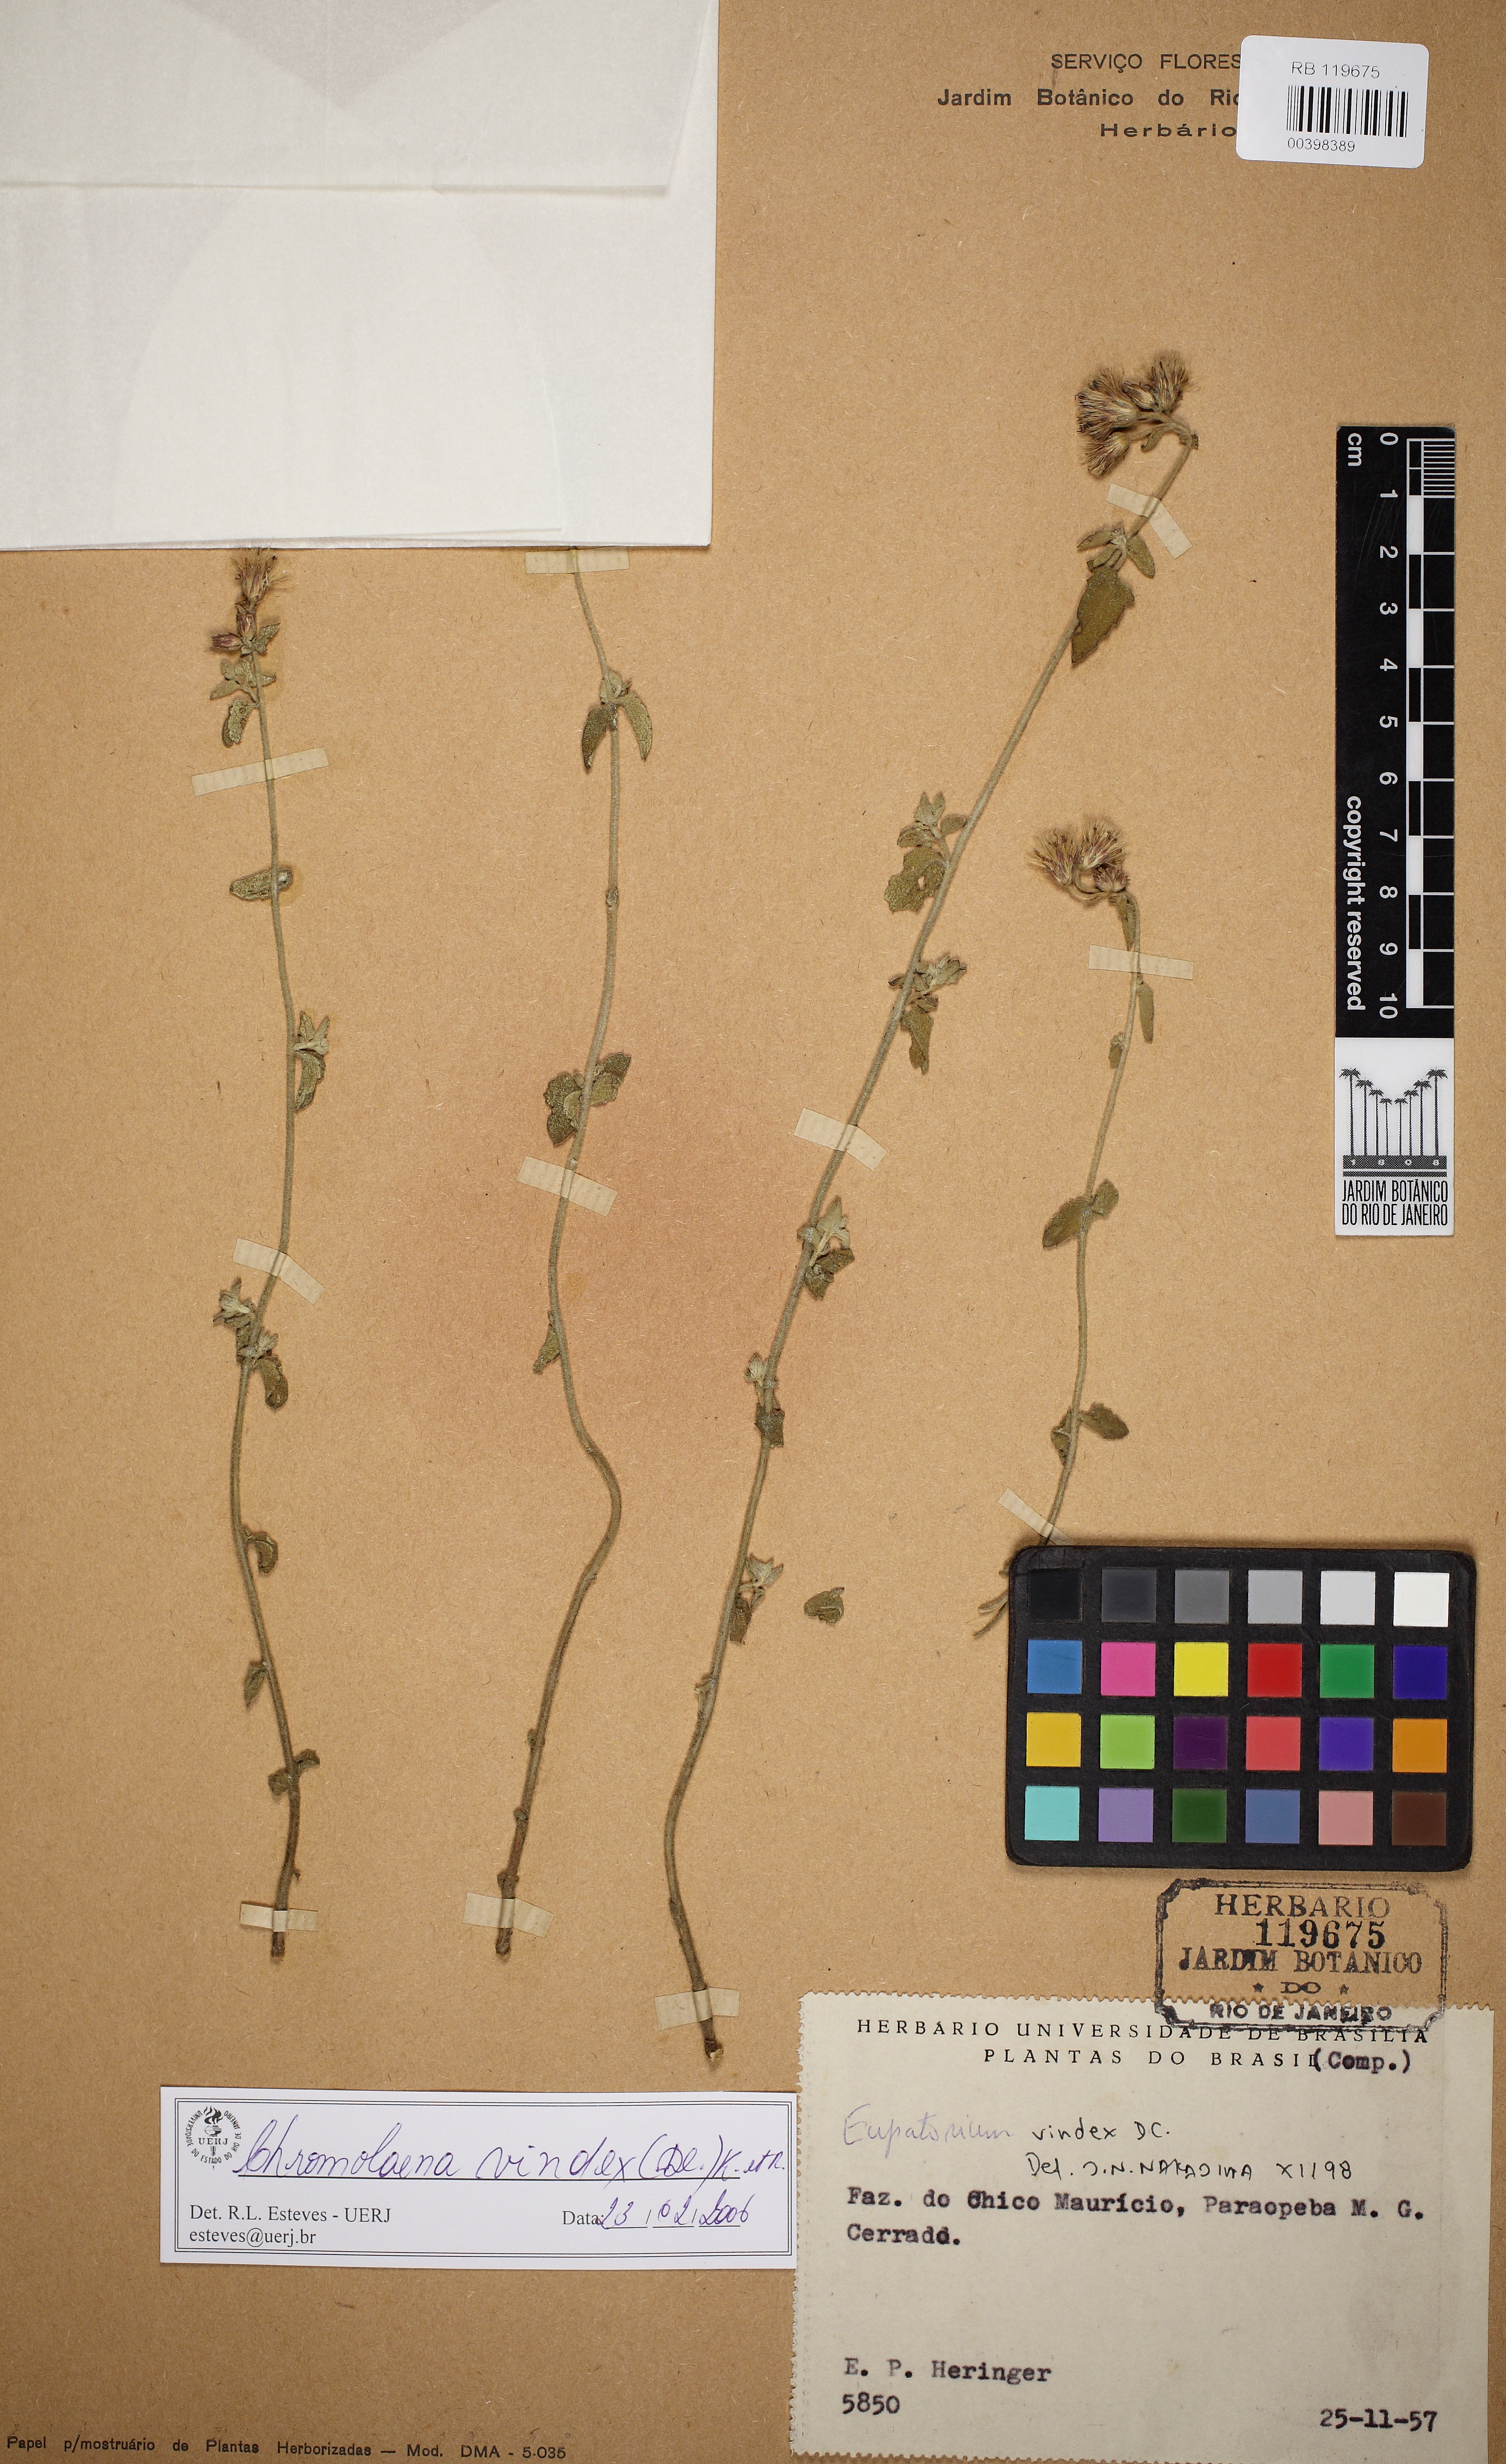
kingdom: Plantae
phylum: Tracheophyta
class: Magnoliopsida
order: Asterales
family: Asteraceae
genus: Chromolaena
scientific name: Chromolaena vindex
